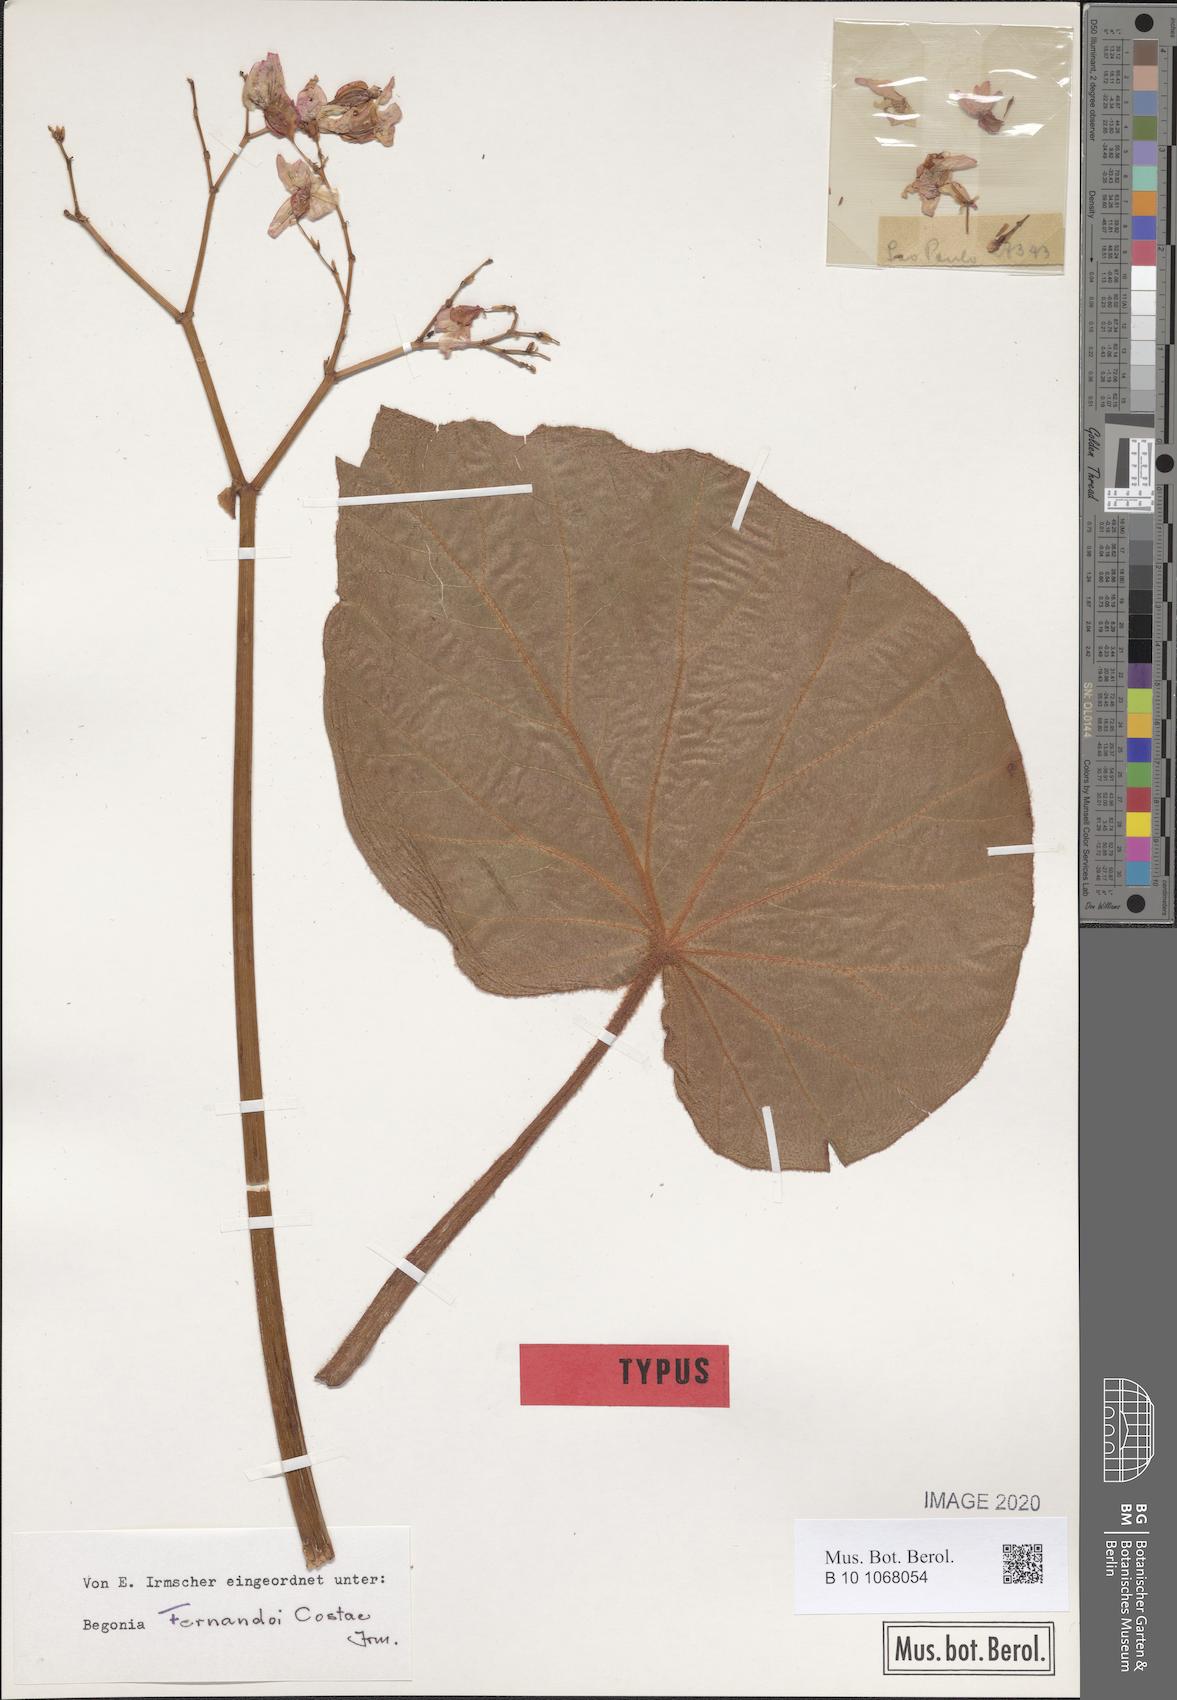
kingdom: Plantae
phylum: Tracheophyta
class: Magnoliopsida
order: Cucurbitales
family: Begoniaceae
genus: Begonia
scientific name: Begonia fernando-costae
